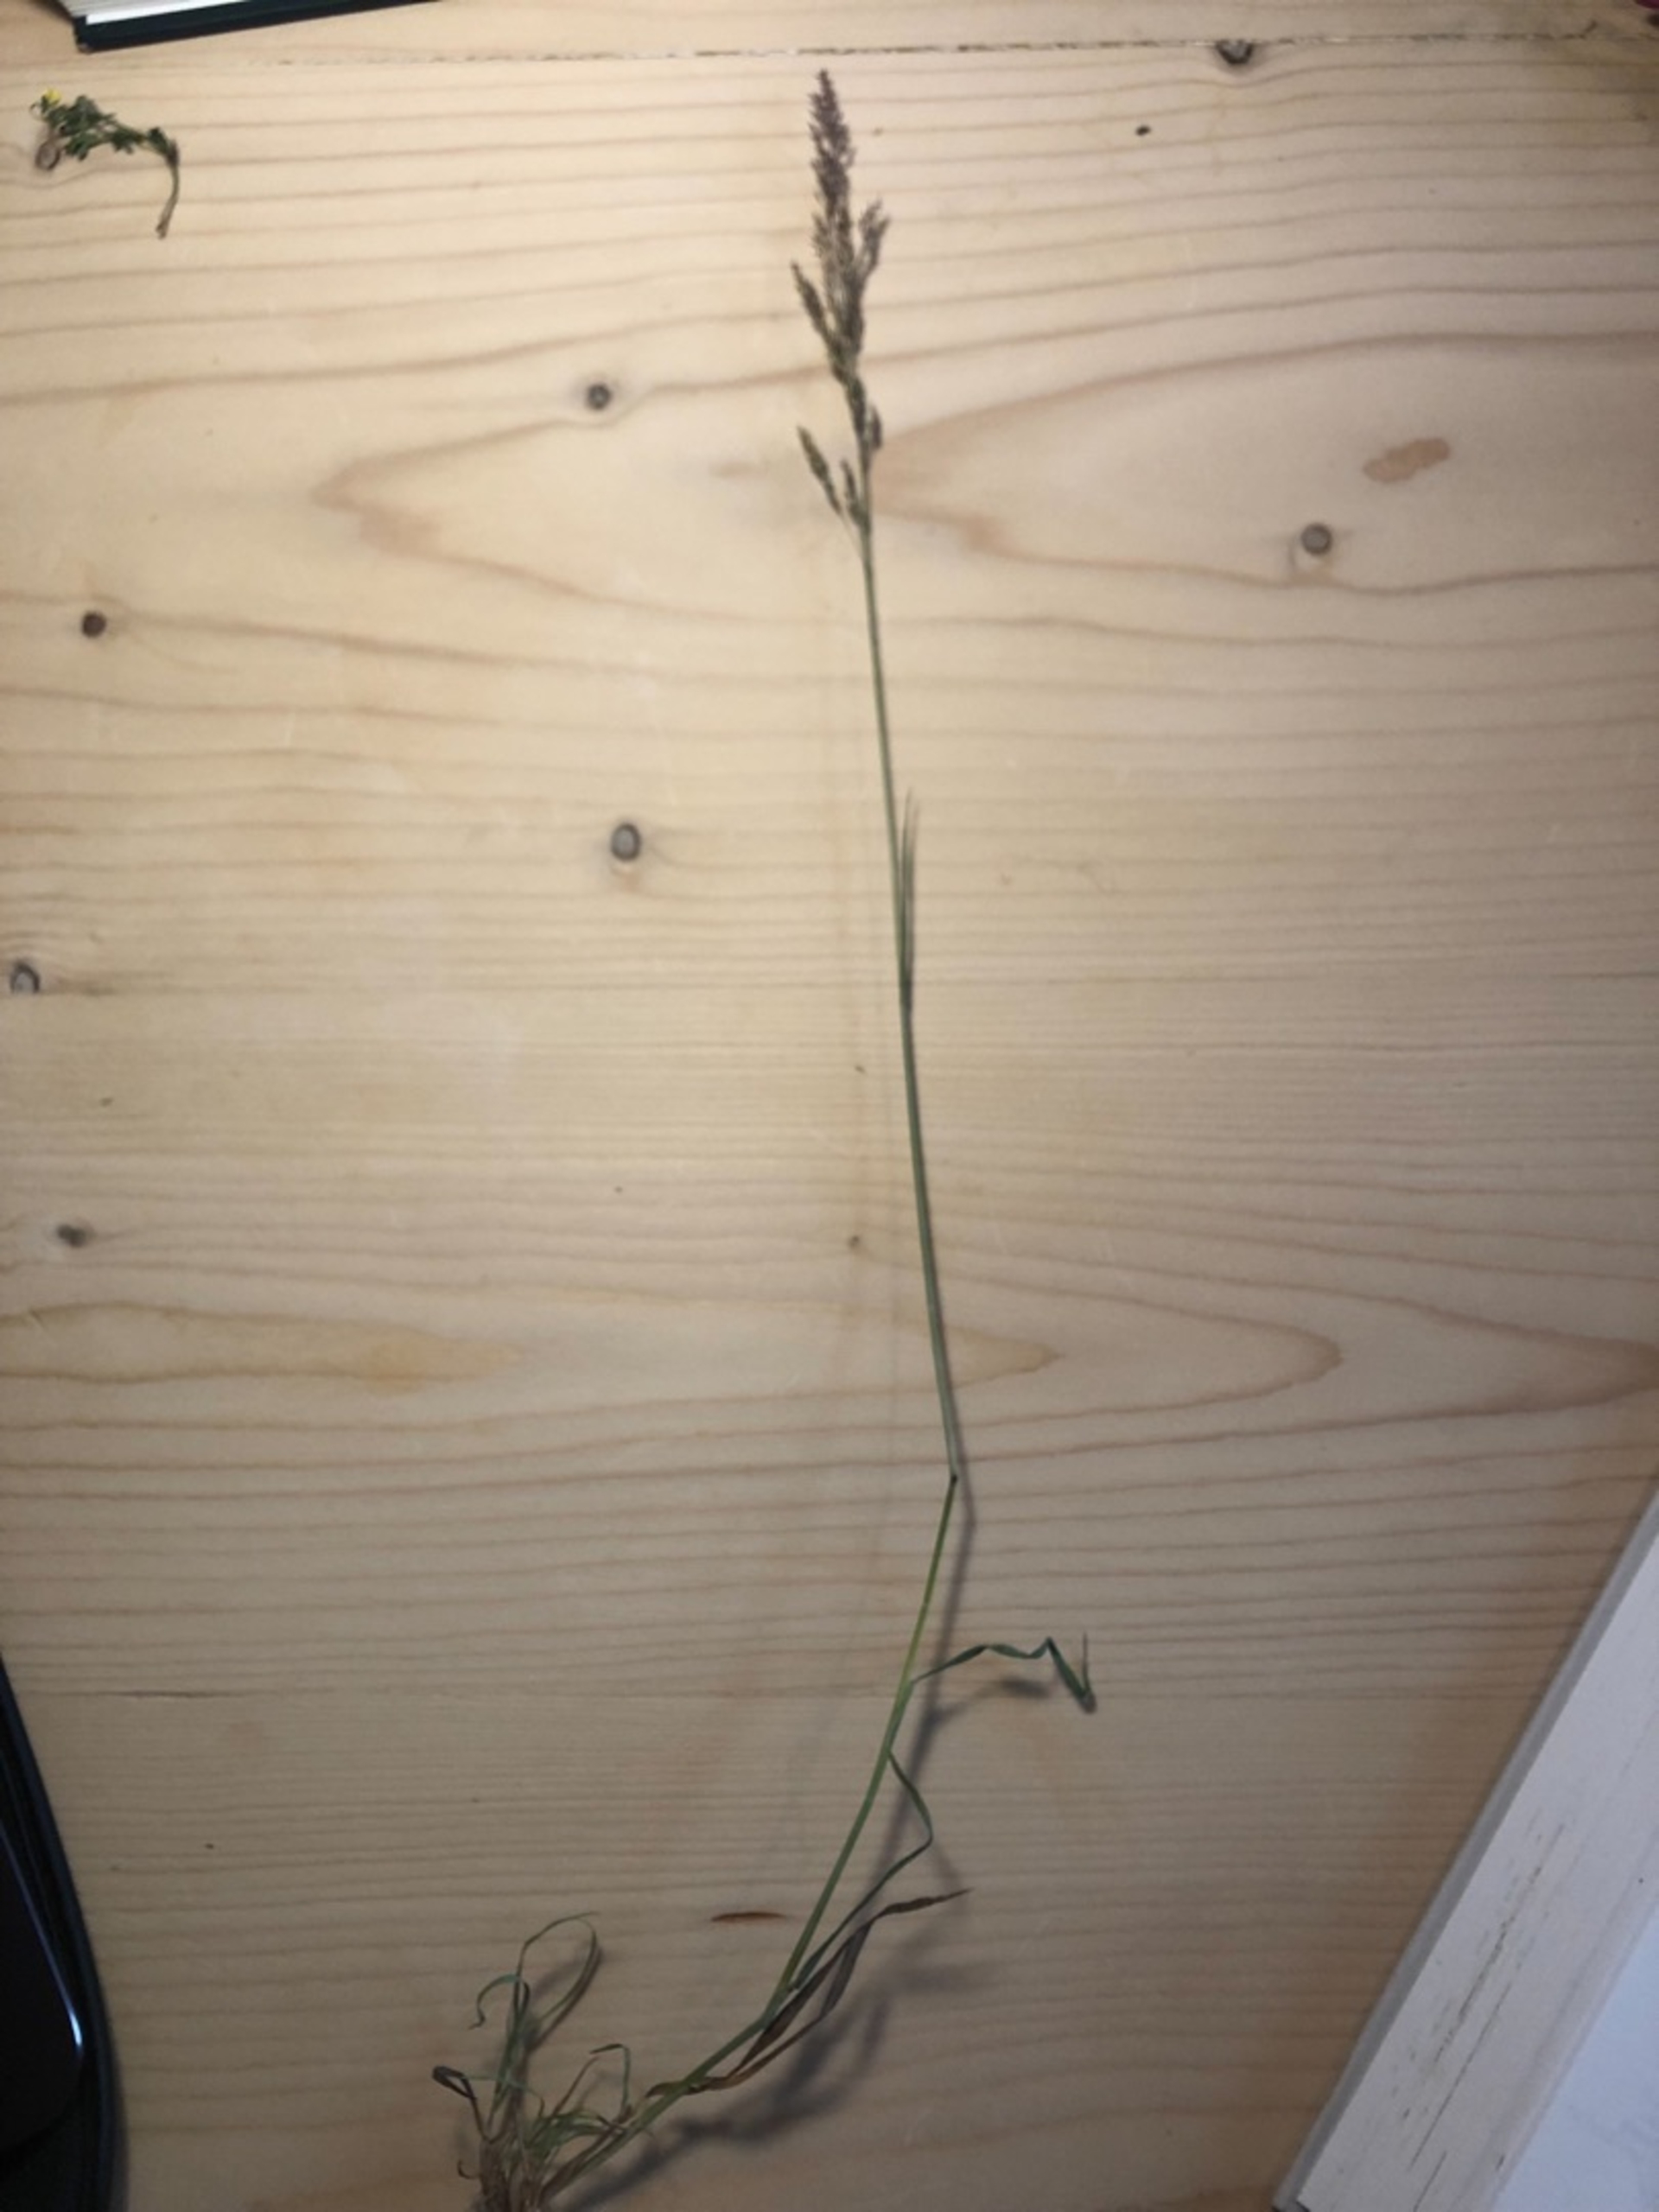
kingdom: Plantae
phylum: Tracheophyta
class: Liliopsida
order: Poales
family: Poaceae
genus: Agrostis
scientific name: Agrostis stolonifera
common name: Kryb-hvene
